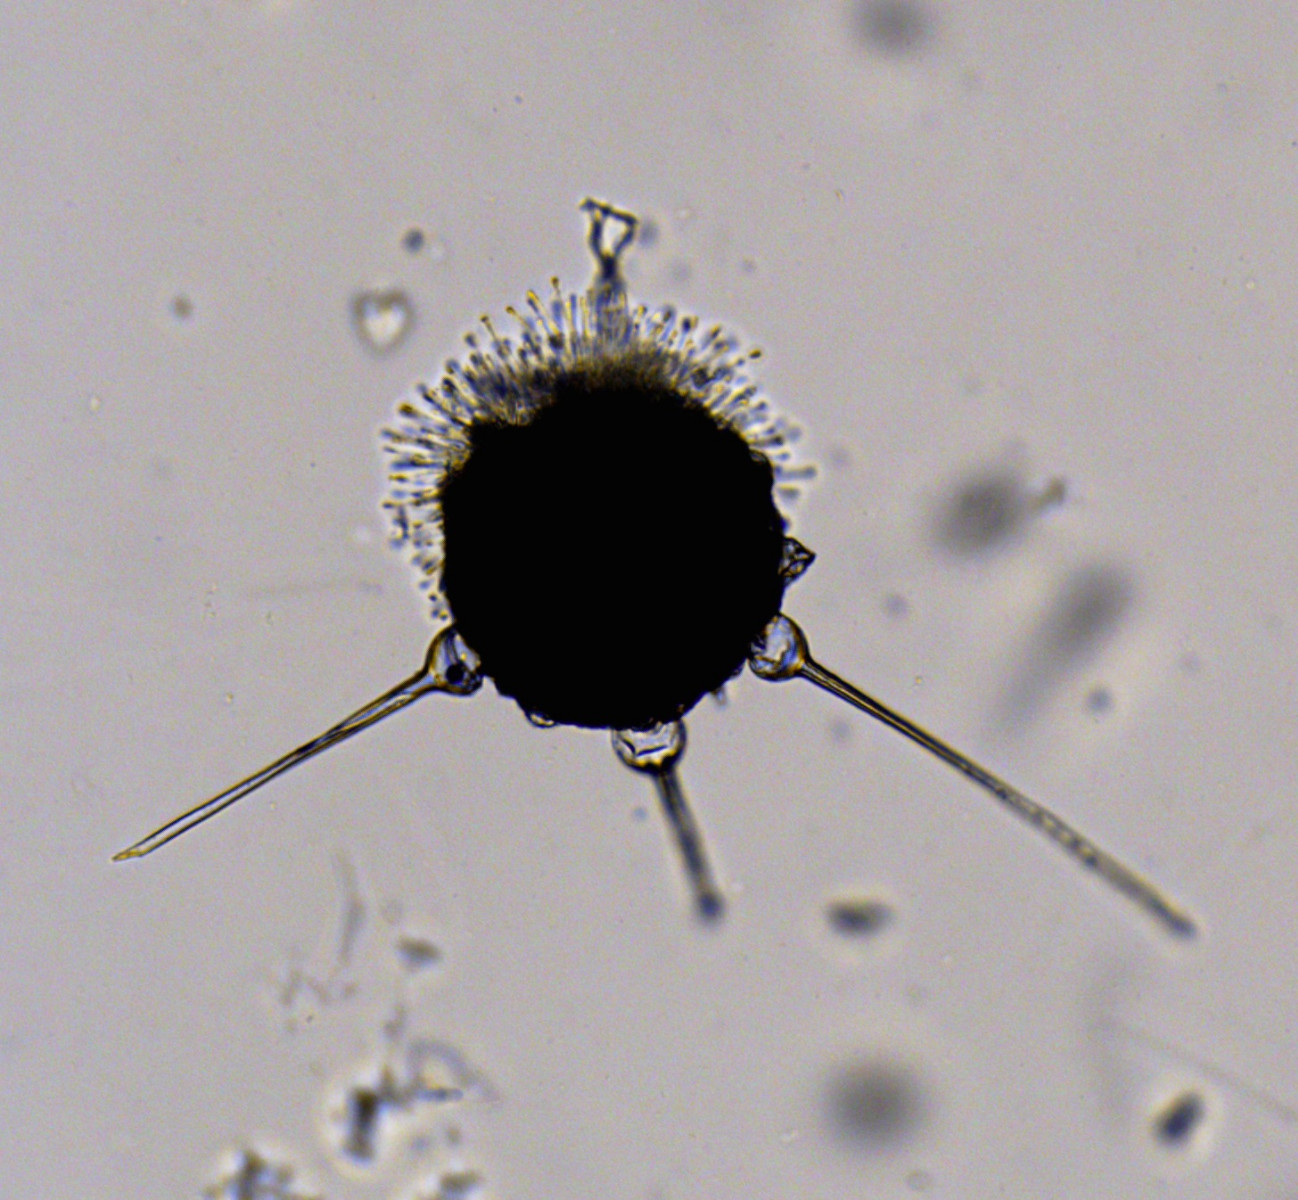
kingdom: Fungi
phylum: Ascomycota
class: Leotiomycetes
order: Helotiales
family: Erysiphaceae
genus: Phyllactinia
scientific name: Phyllactinia mali
